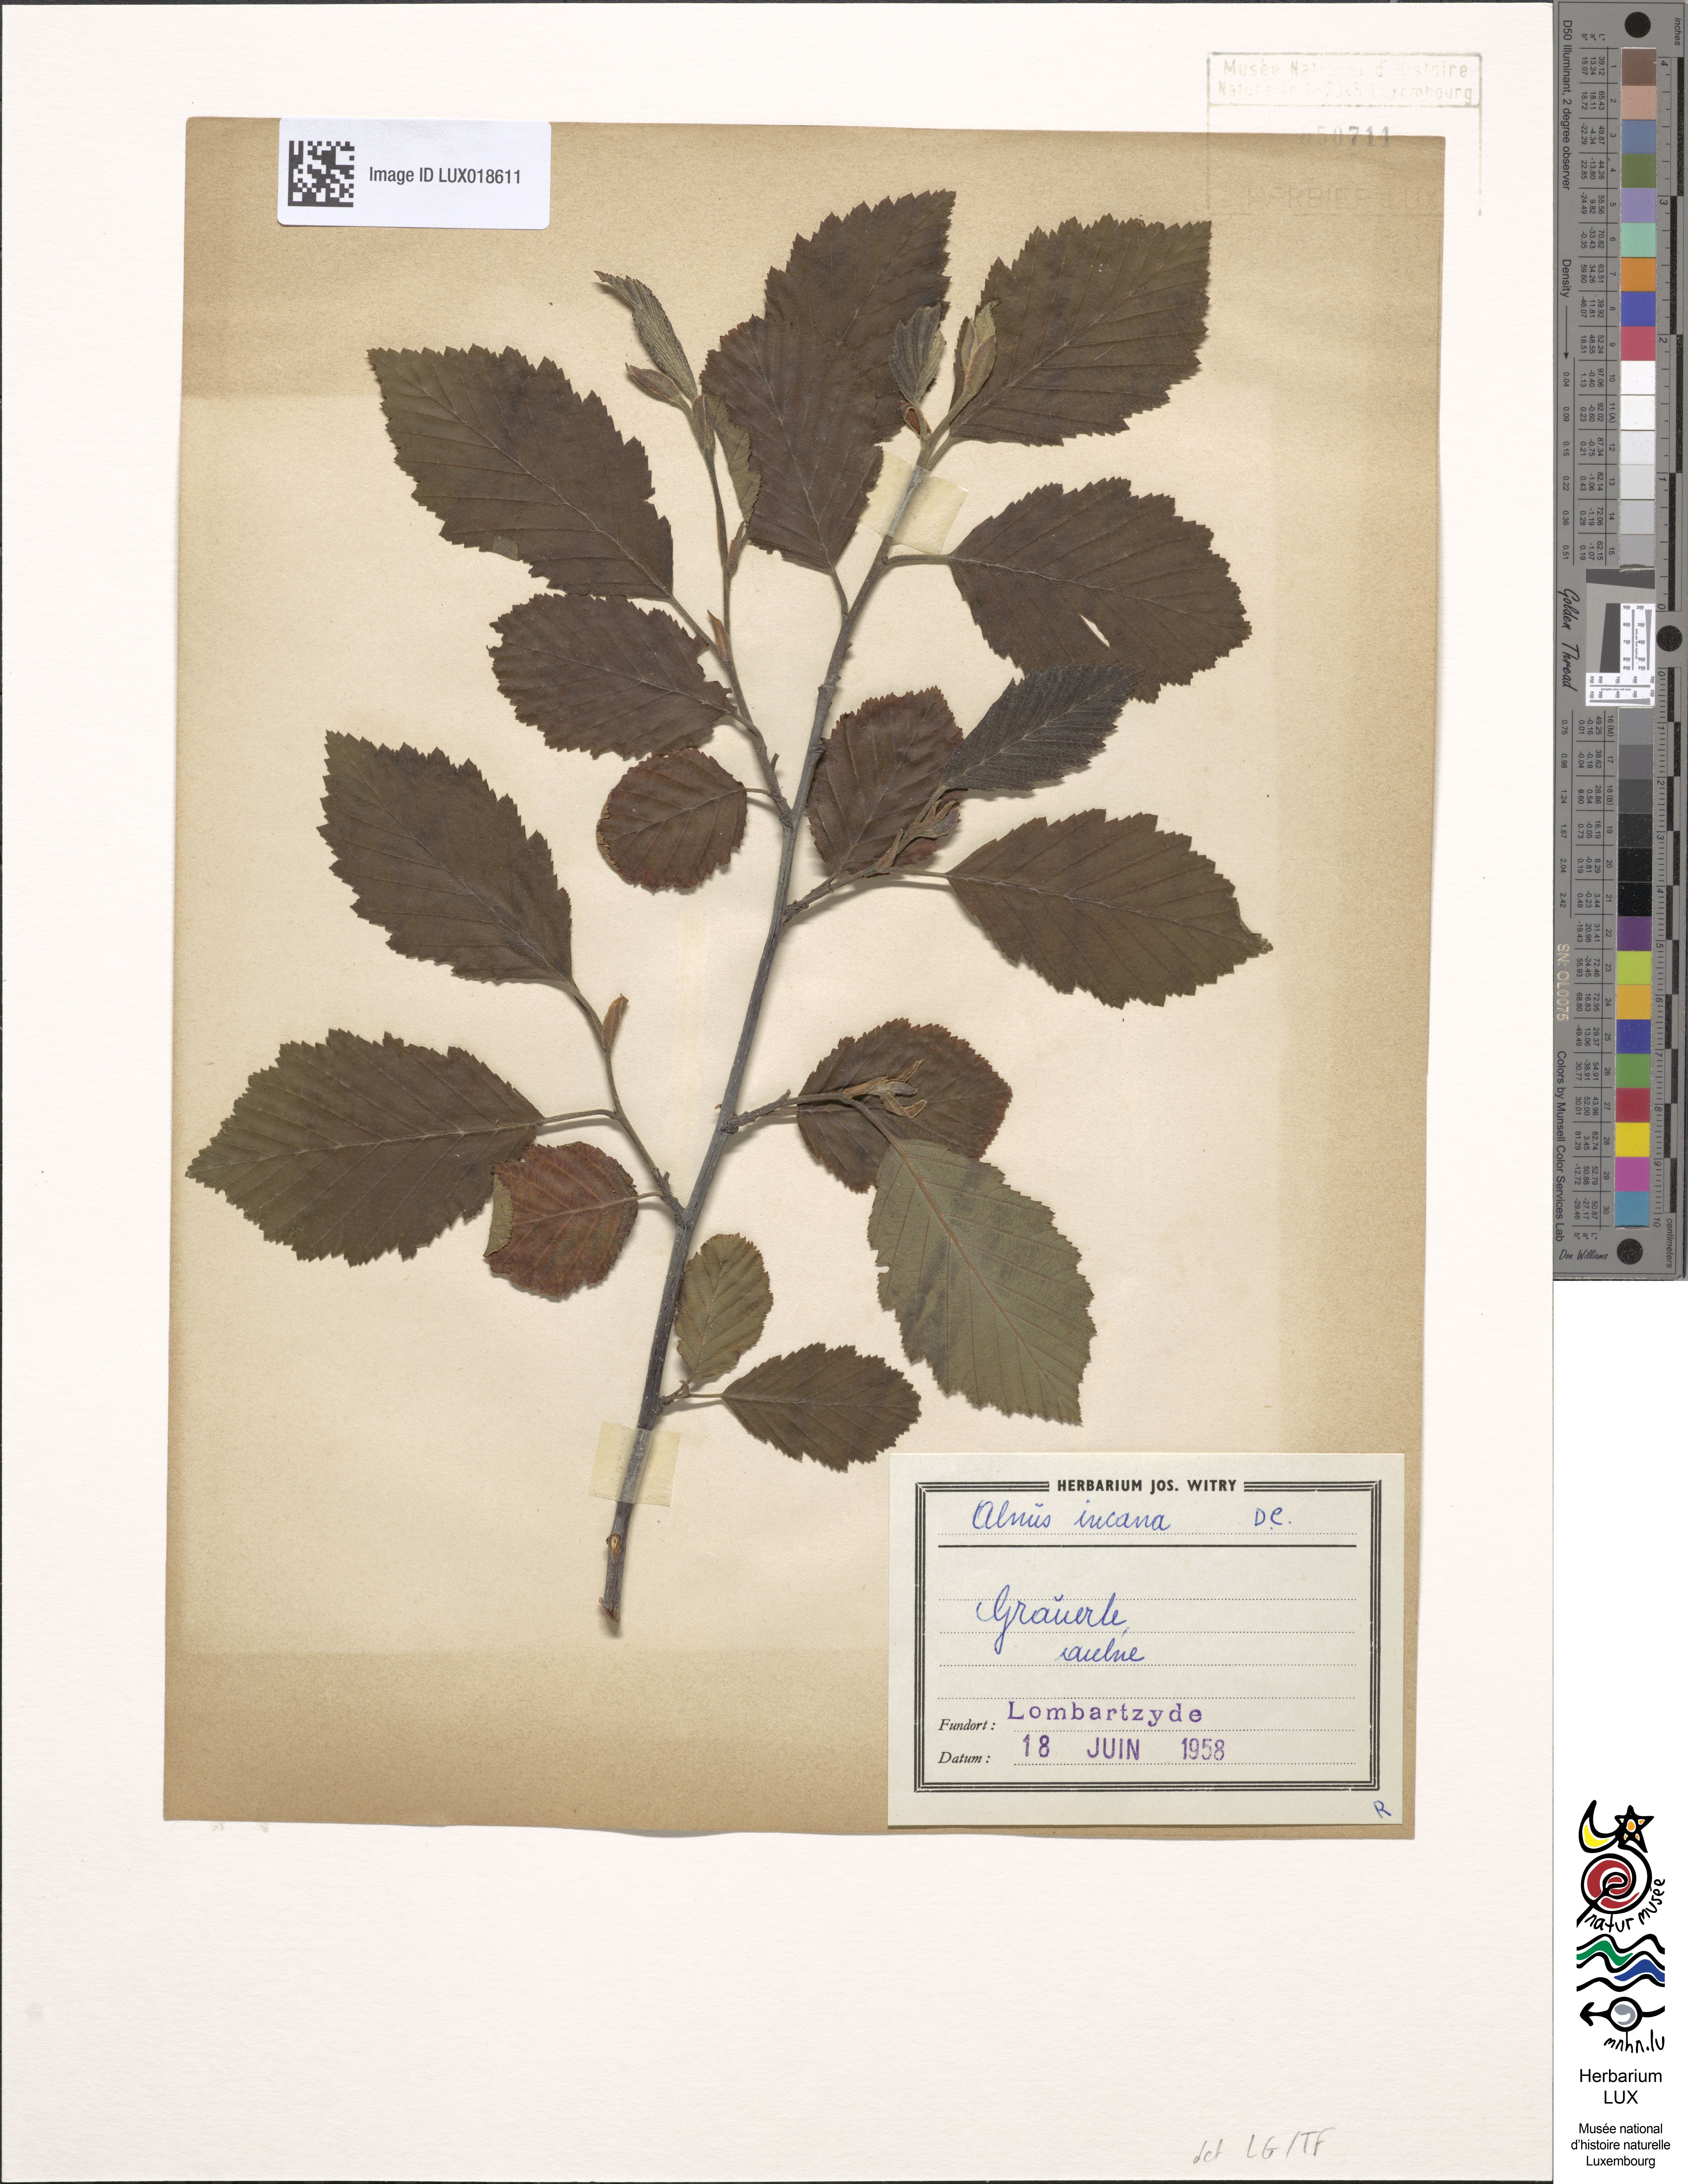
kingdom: Plantae
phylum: Tracheophyta
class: Magnoliopsida
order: Fagales
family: Betulaceae
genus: Alnus
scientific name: Alnus incana
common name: Grey alder
